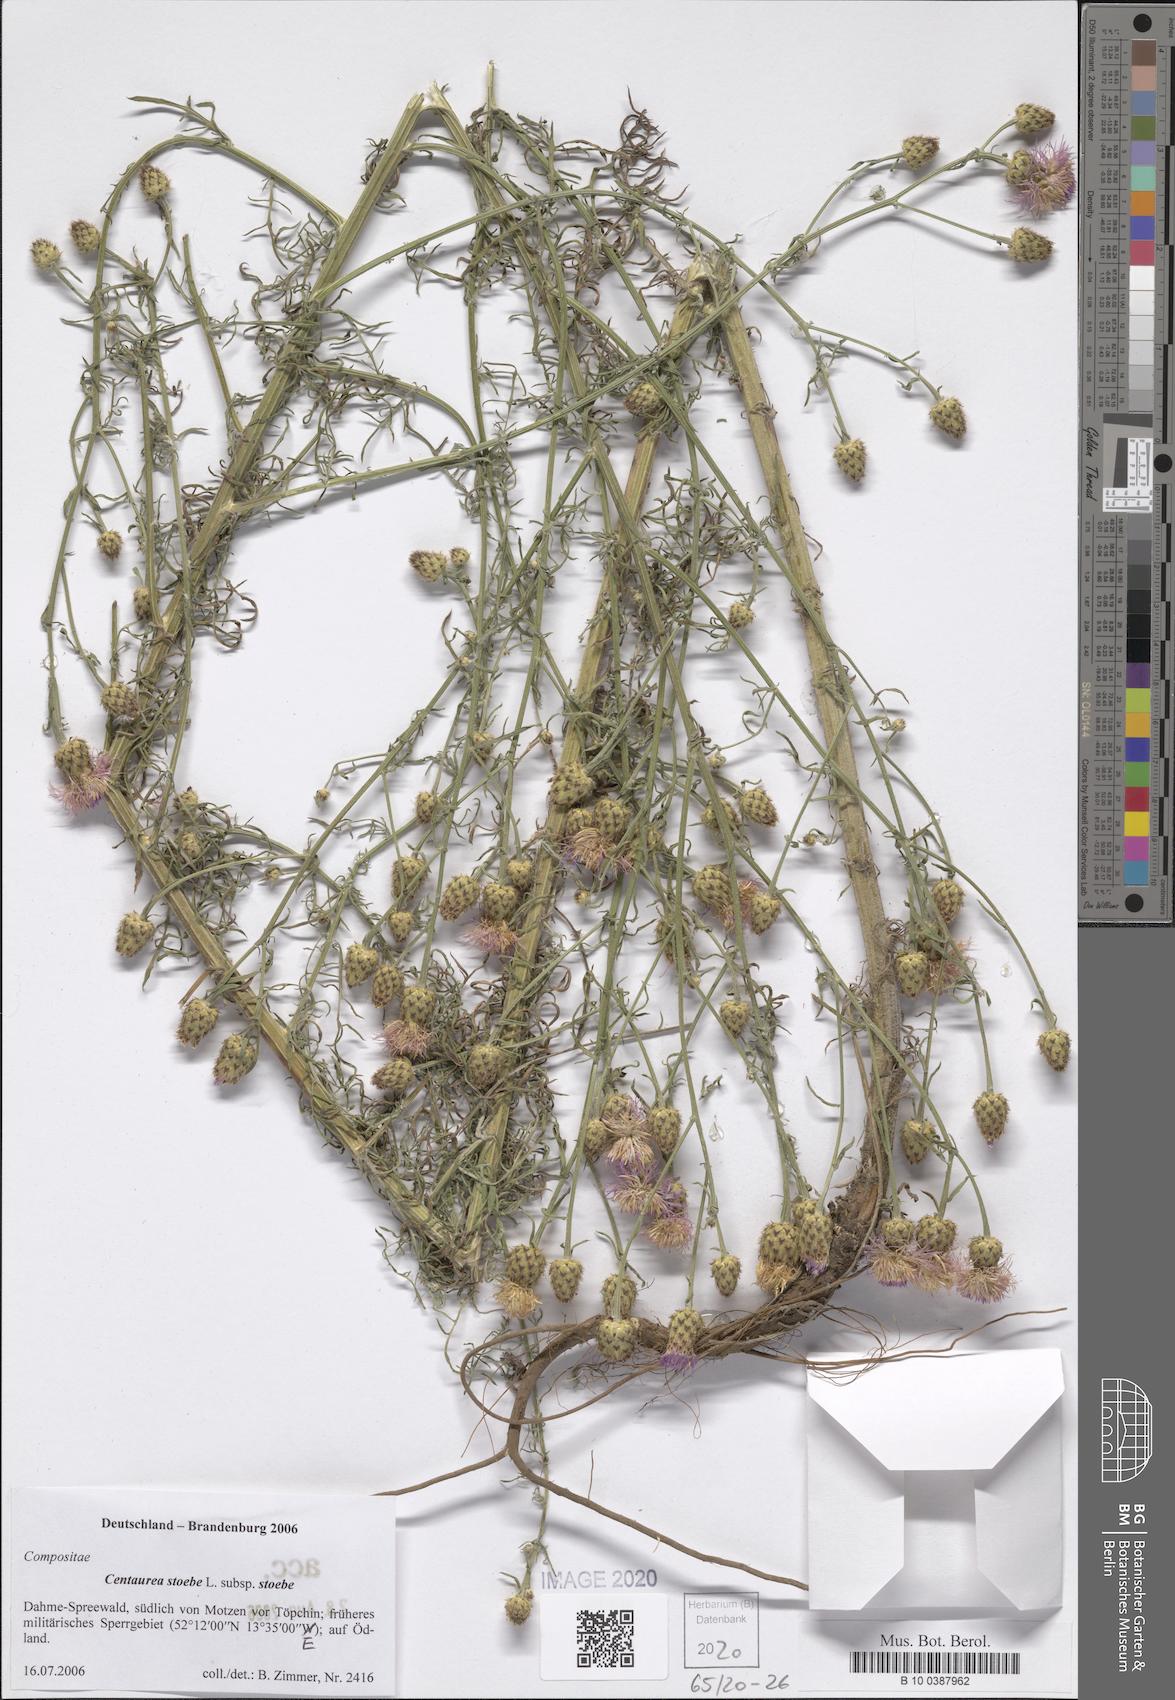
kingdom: Plantae
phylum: Tracheophyta
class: Magnoliopsida
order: Asterales
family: Asteraceae
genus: Centaurea
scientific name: Centaurea stoebe
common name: Spotted knapweed
